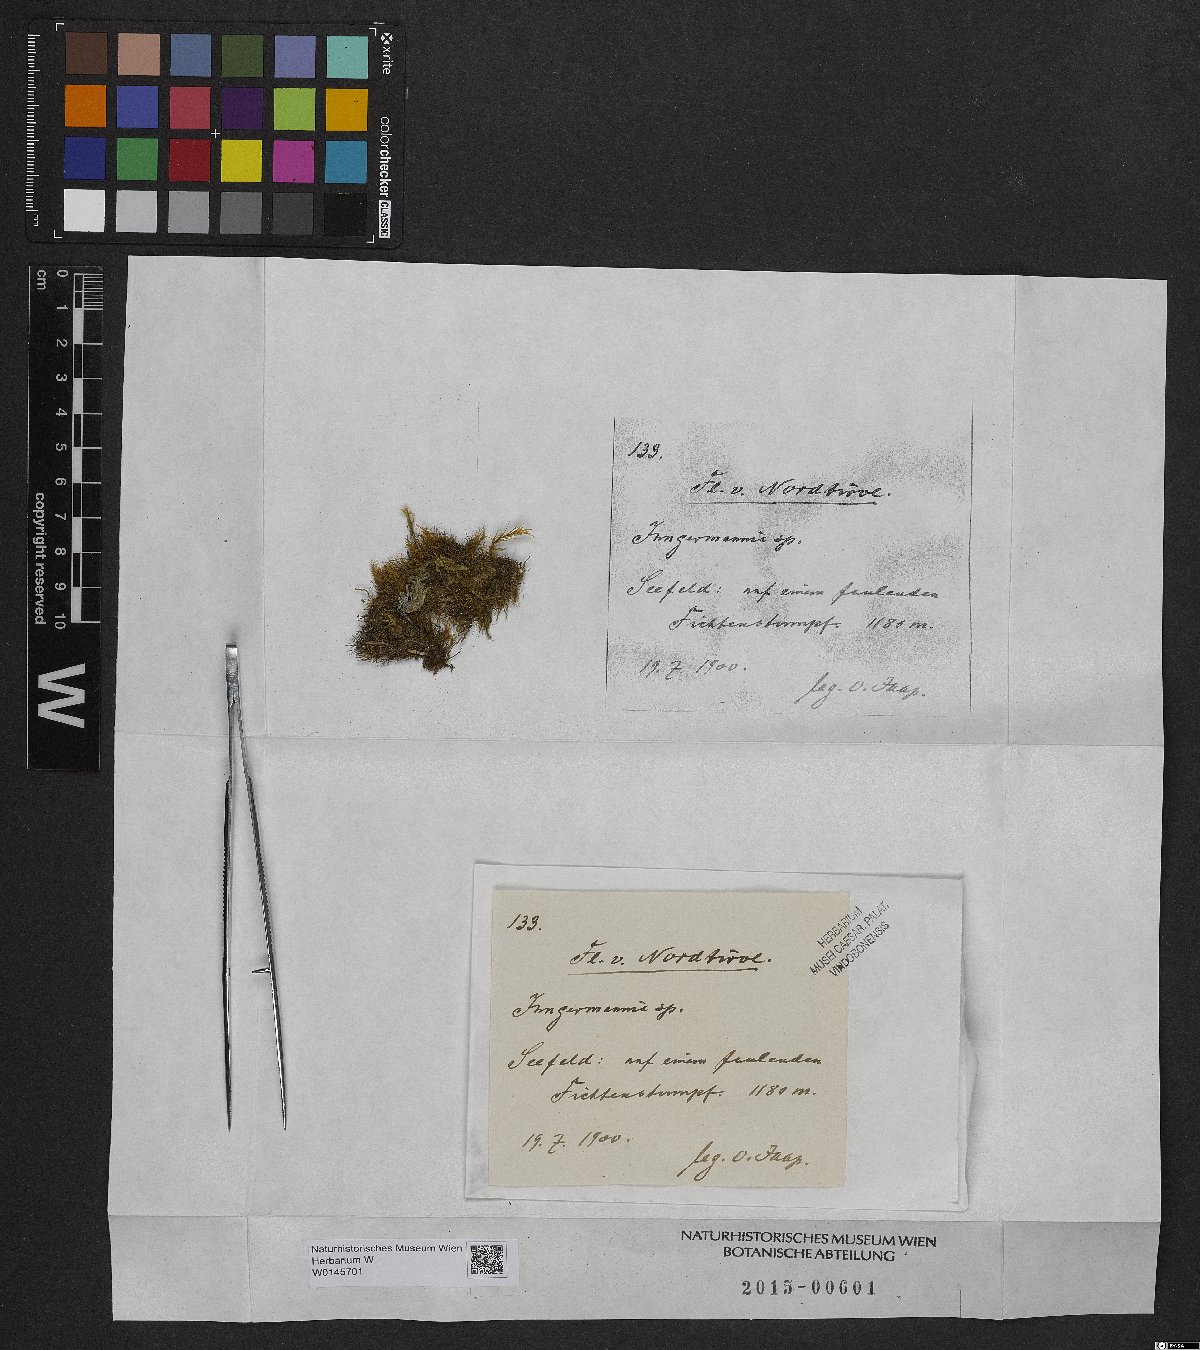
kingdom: Plantae
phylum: Marchantiophyta
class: Jungermanniopsida
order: Jungermanniales
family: Jungermanniaceae
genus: Jungermannia
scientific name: Jungermannia
